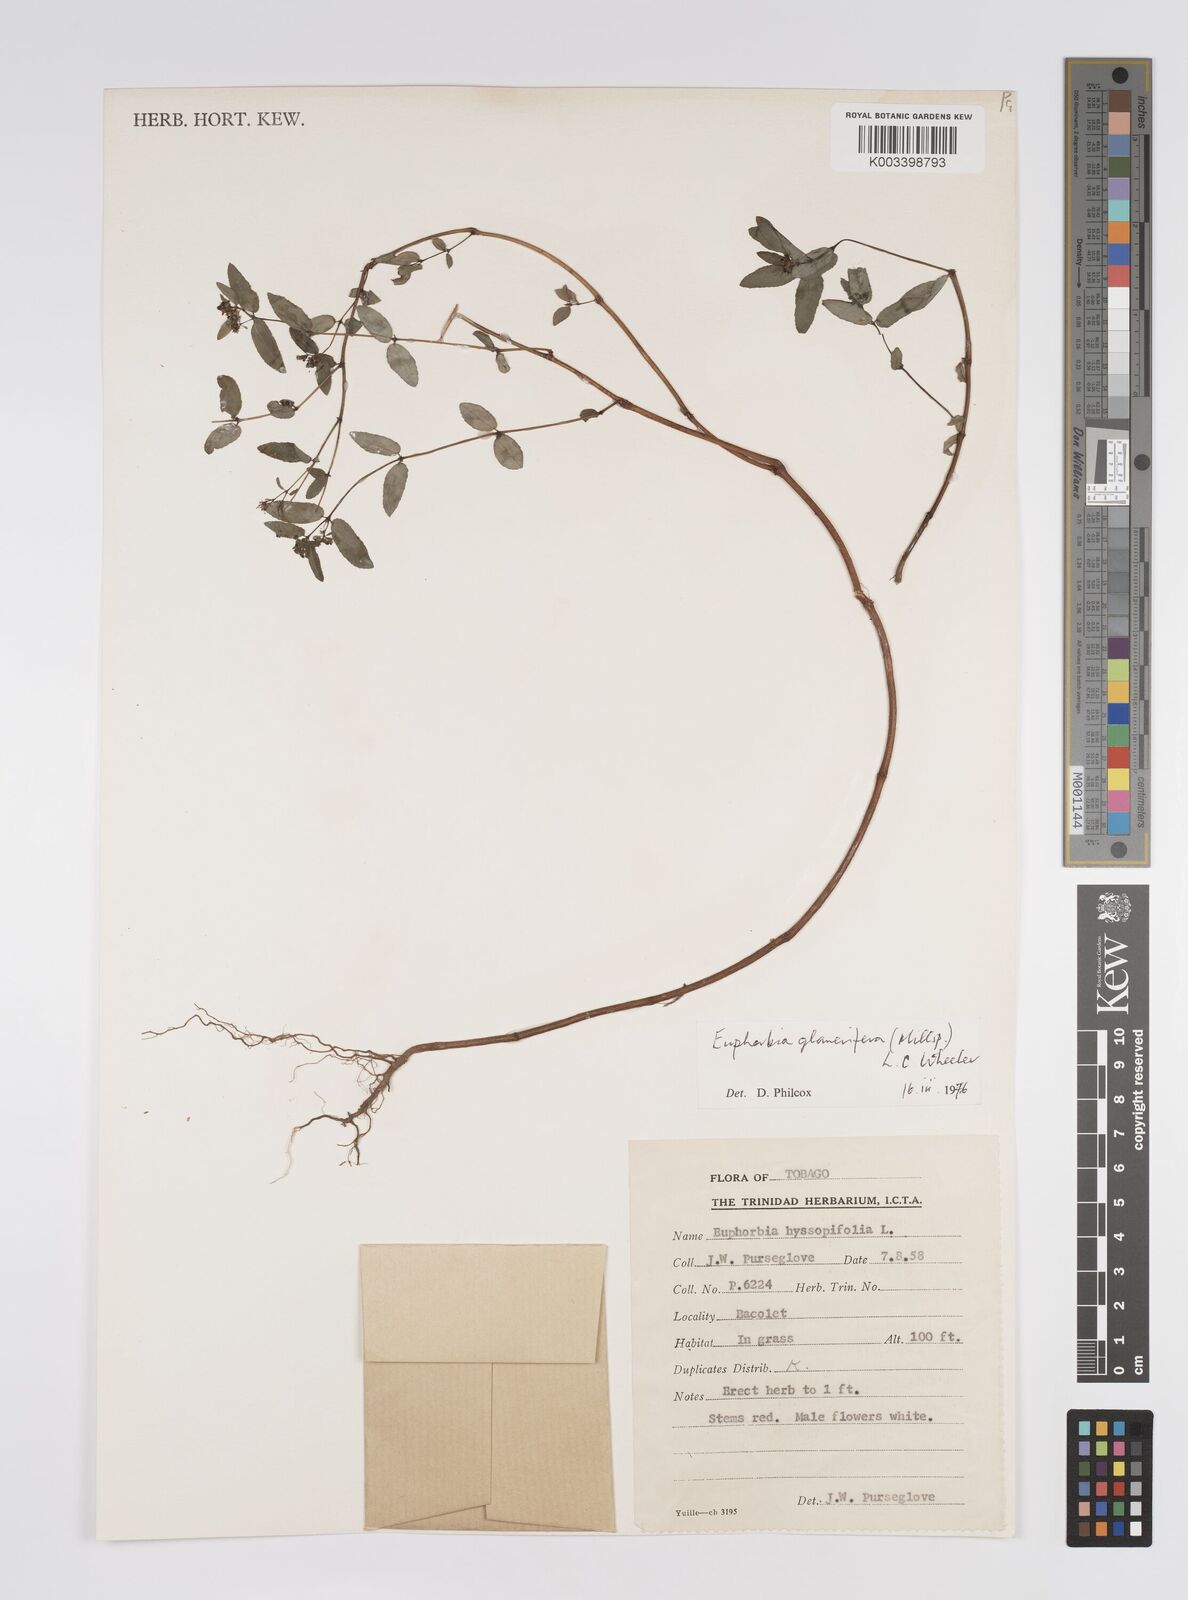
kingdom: Plantae
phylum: Tracheophyta
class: Magnoliopsida
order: Malpighiales
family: Euphorbiaceae
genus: Euphorbia
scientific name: Euphorbia hypericifolia
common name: Graceful sandmat
